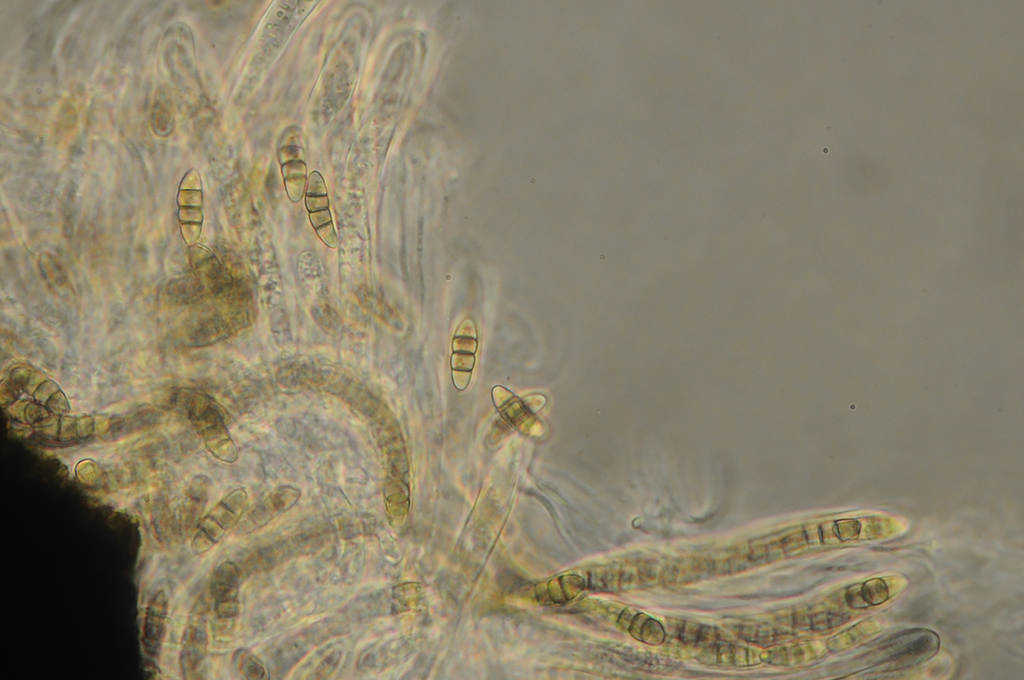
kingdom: Fungi
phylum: Ascomycota
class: Dothideomycetes
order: Pleosporales
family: Melanommataceae
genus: Melanomma
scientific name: Melanomma pulvis-pyrius
